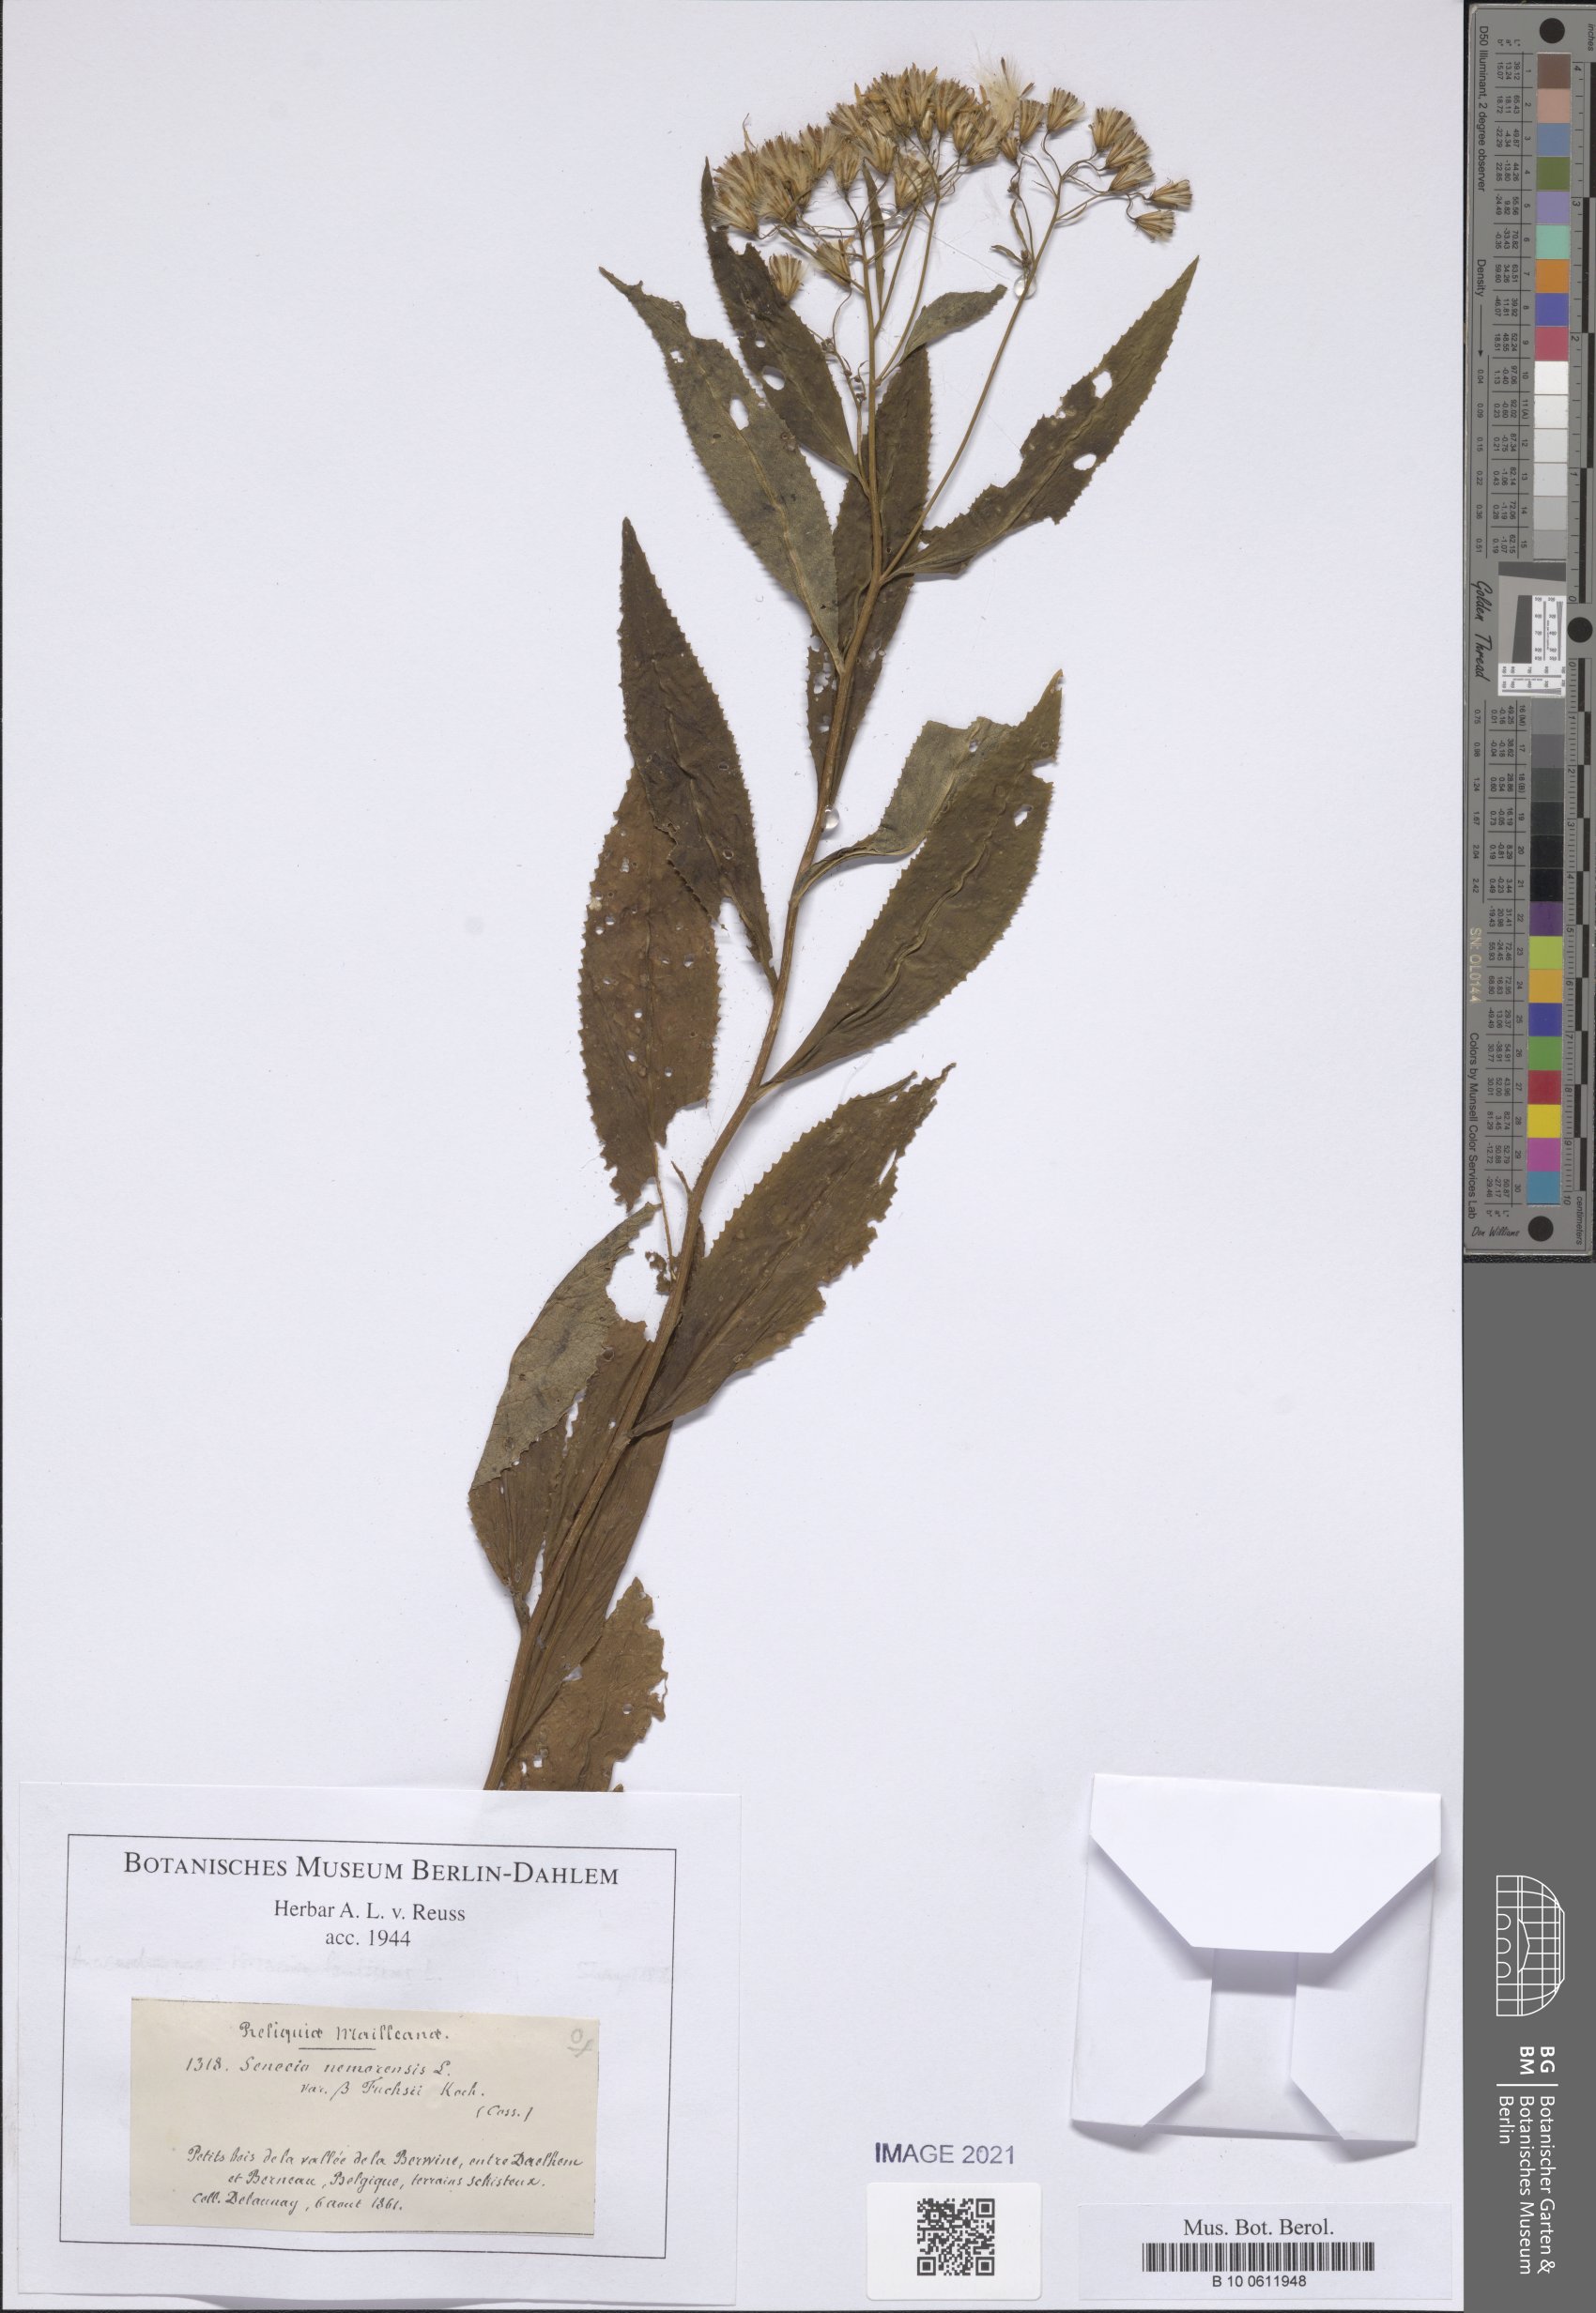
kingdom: Plantae
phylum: Tracheophyta
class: Magnoliopsida
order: Asterales
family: Asteraceae
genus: Senecio
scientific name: Senecio ovatus
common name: Wood ragwort
